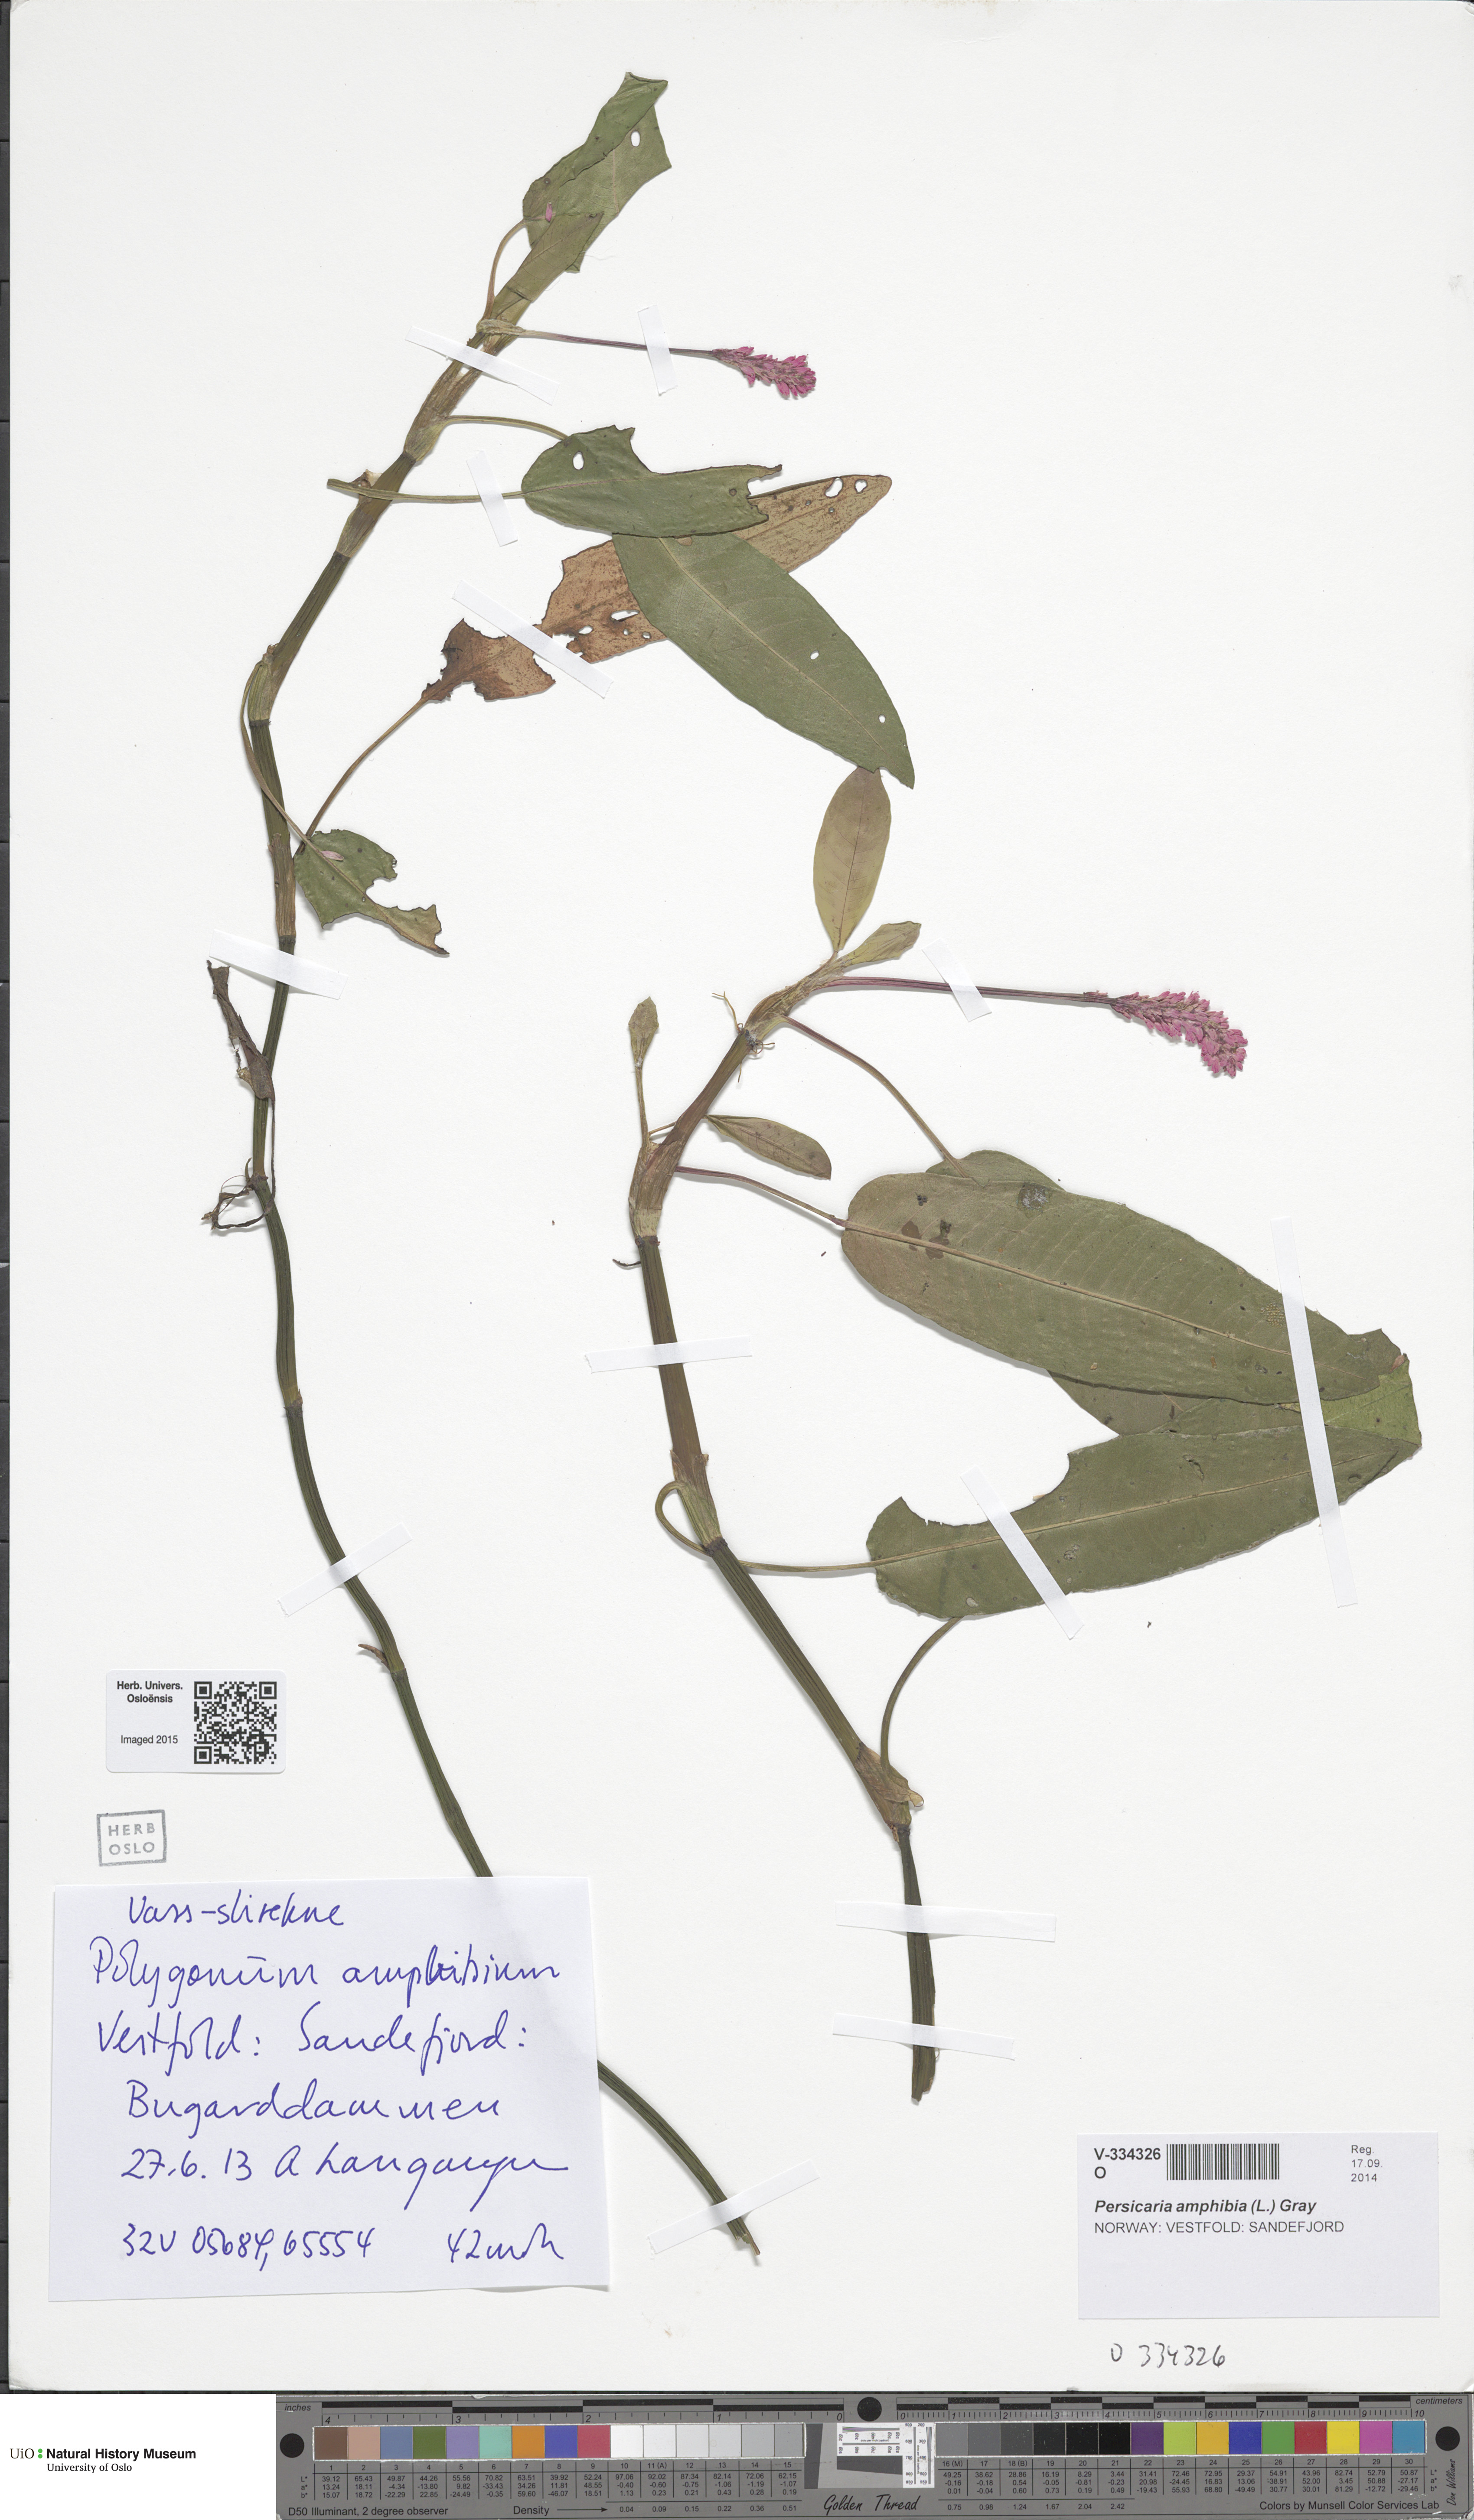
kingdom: Plantae
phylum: Tracheophyta
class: Magnoliopsida
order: Caryophyllales
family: Polygonaceae
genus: Persicaria
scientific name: Persicaria amphibia
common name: Amphibious bistort
